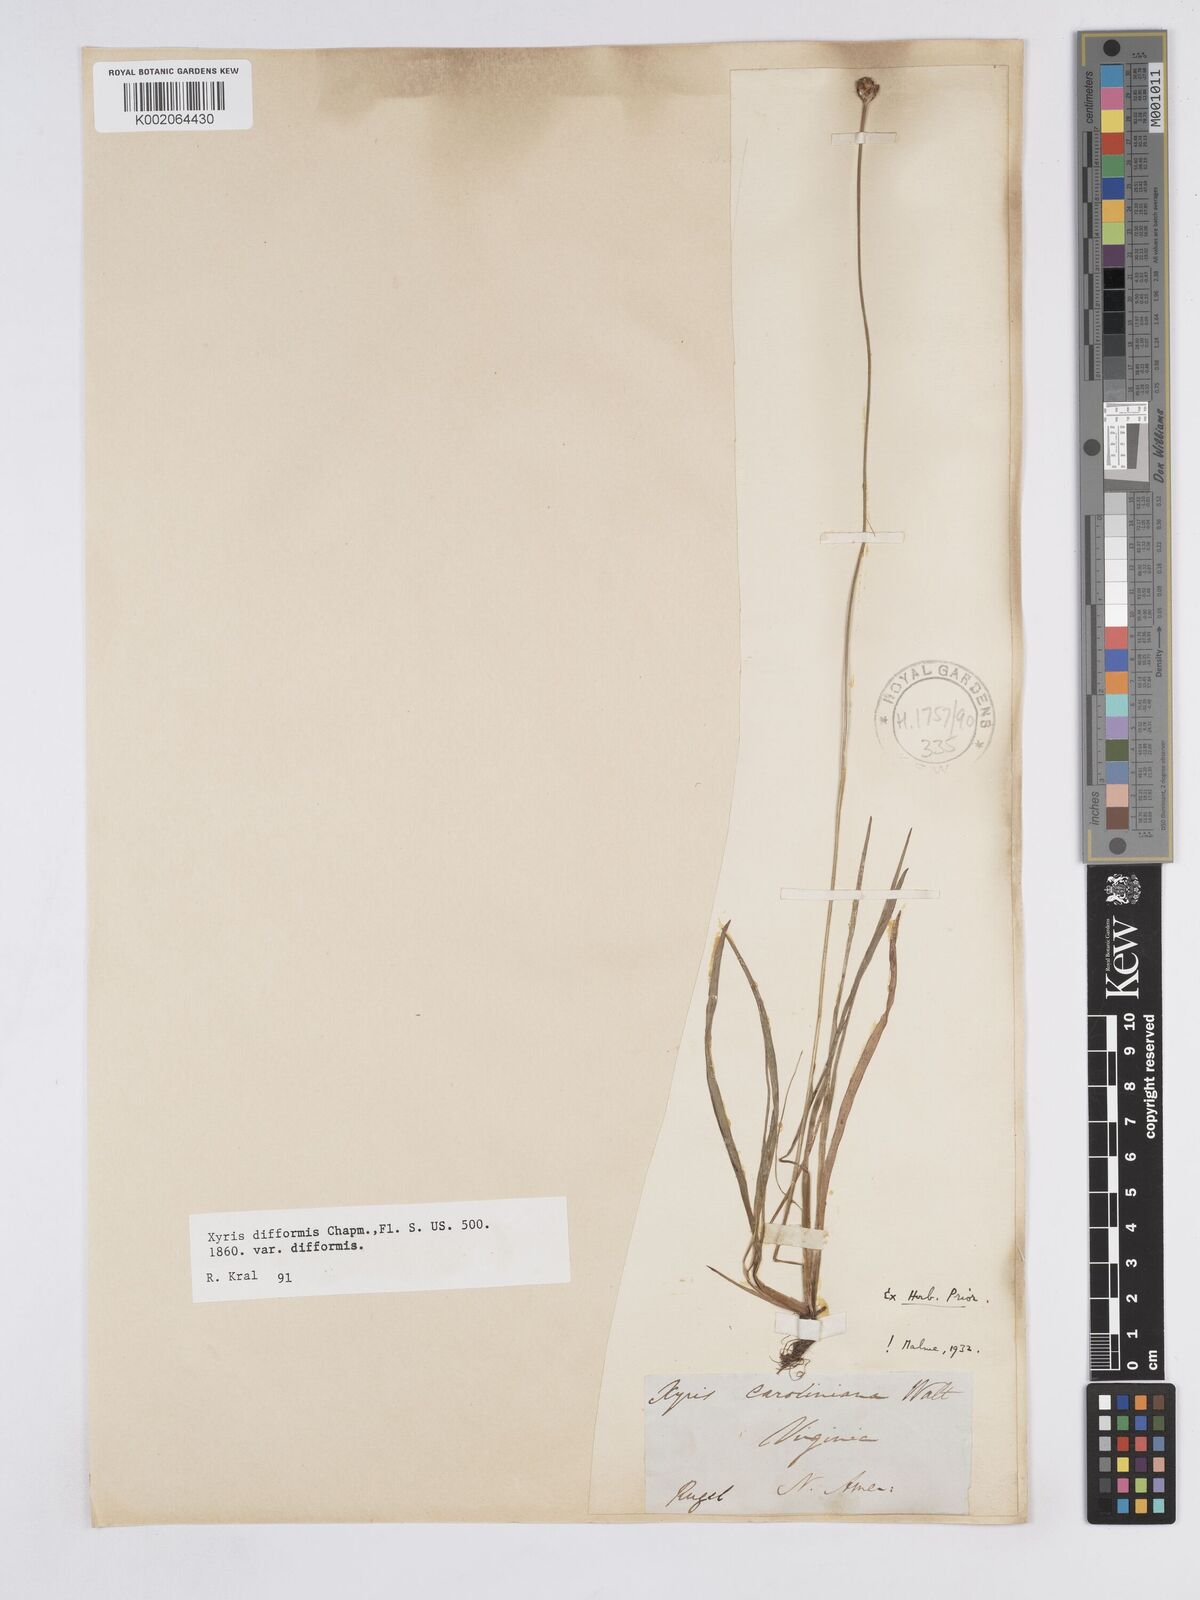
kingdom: Plantae
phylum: Tracheophyta
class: Liliopsida
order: Poales
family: Xyridaceae
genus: Xyris
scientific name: Xyris difformis
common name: Bog yellow-eyed-grass
